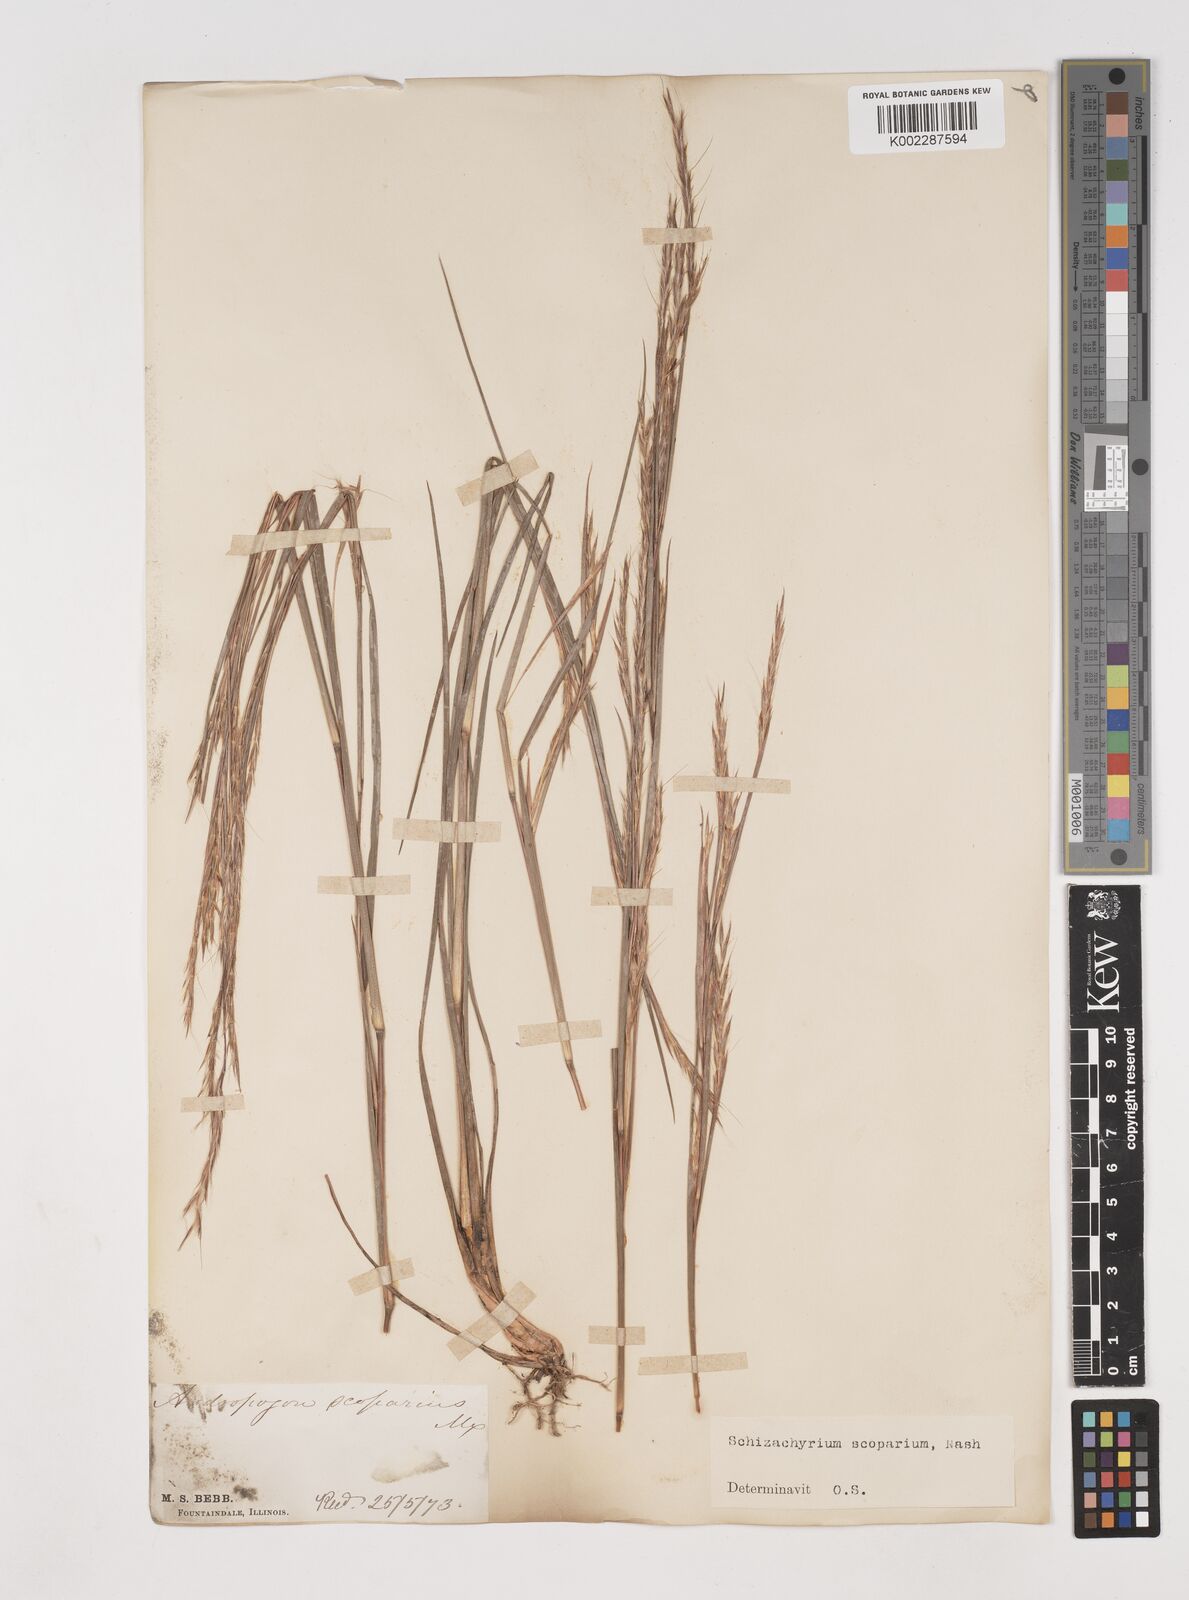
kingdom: Plantae
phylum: Tracheophyta
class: Liliopsida
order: Poales
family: Poaceae
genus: Schizachyrium
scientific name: Schizachyrium scoparium
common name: Little bluestem
